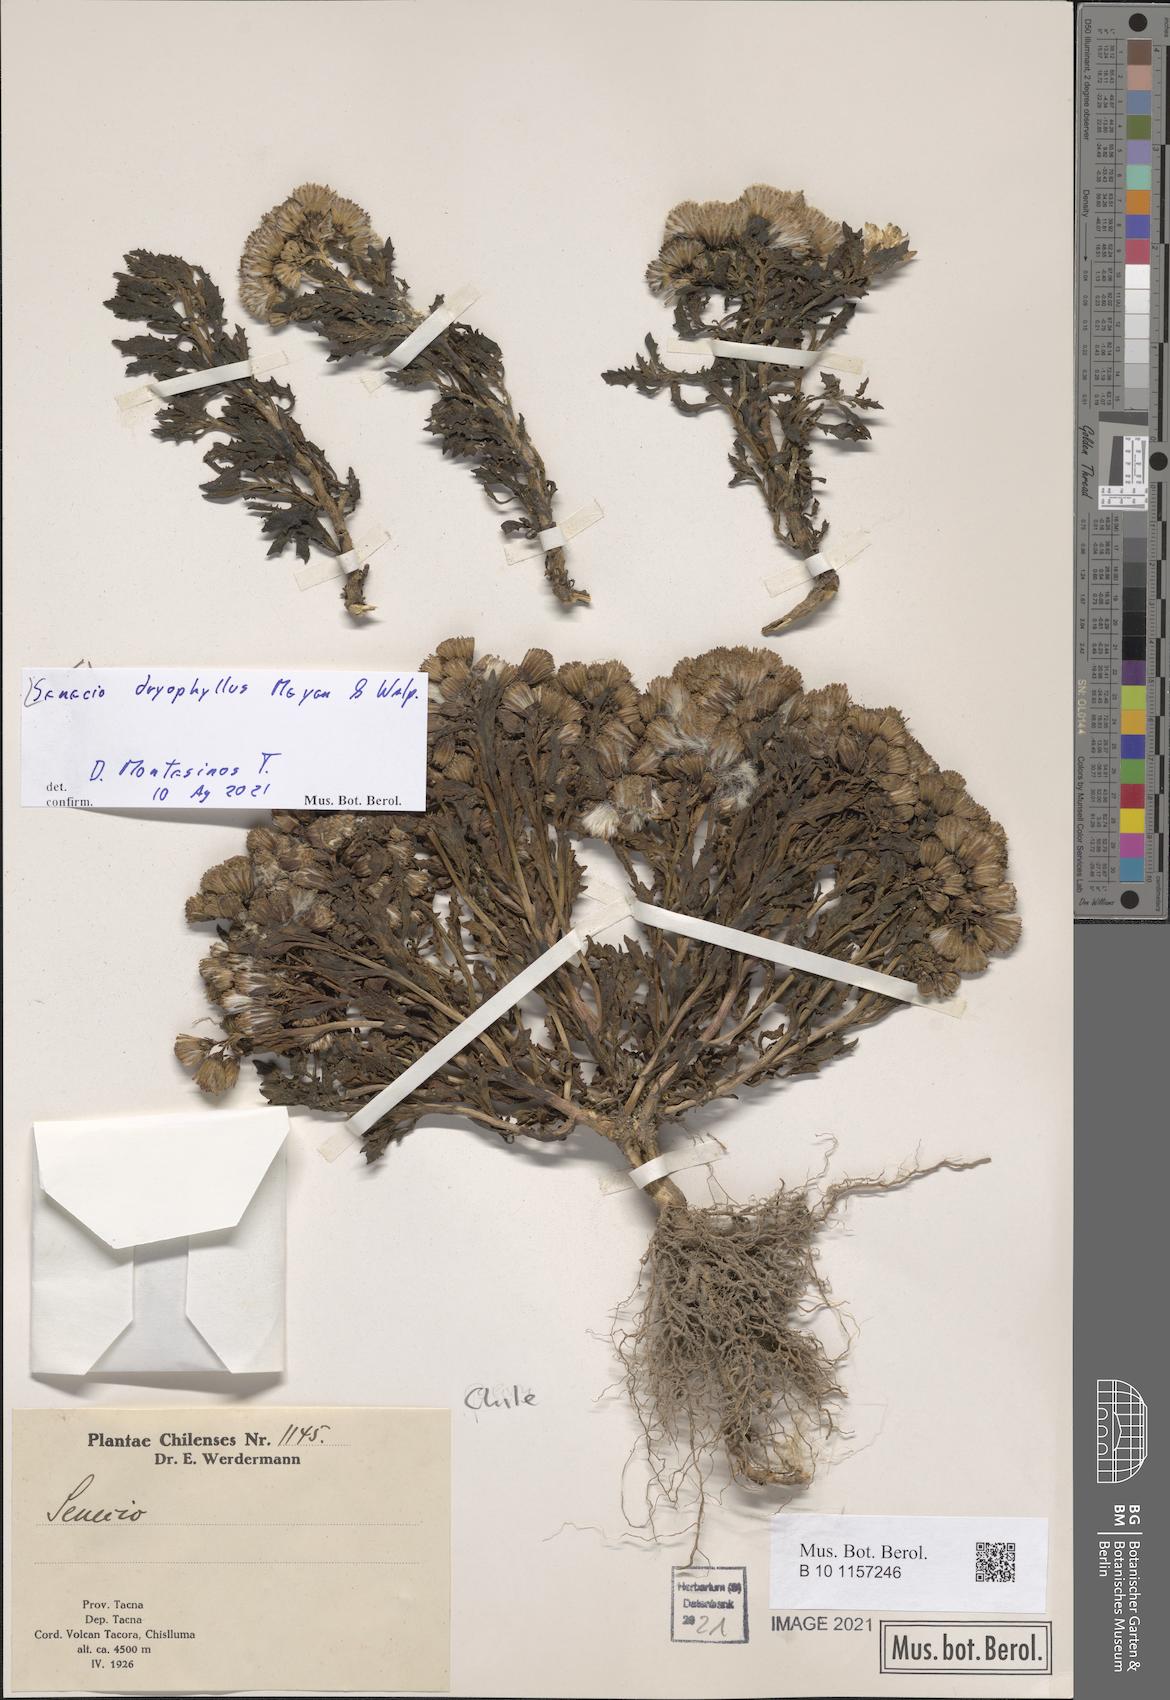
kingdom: Plantae
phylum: Tracheophyta
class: Magnoliopsida
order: Asterales
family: Asteraceae
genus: Senecio
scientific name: Senecio dryophyllus
